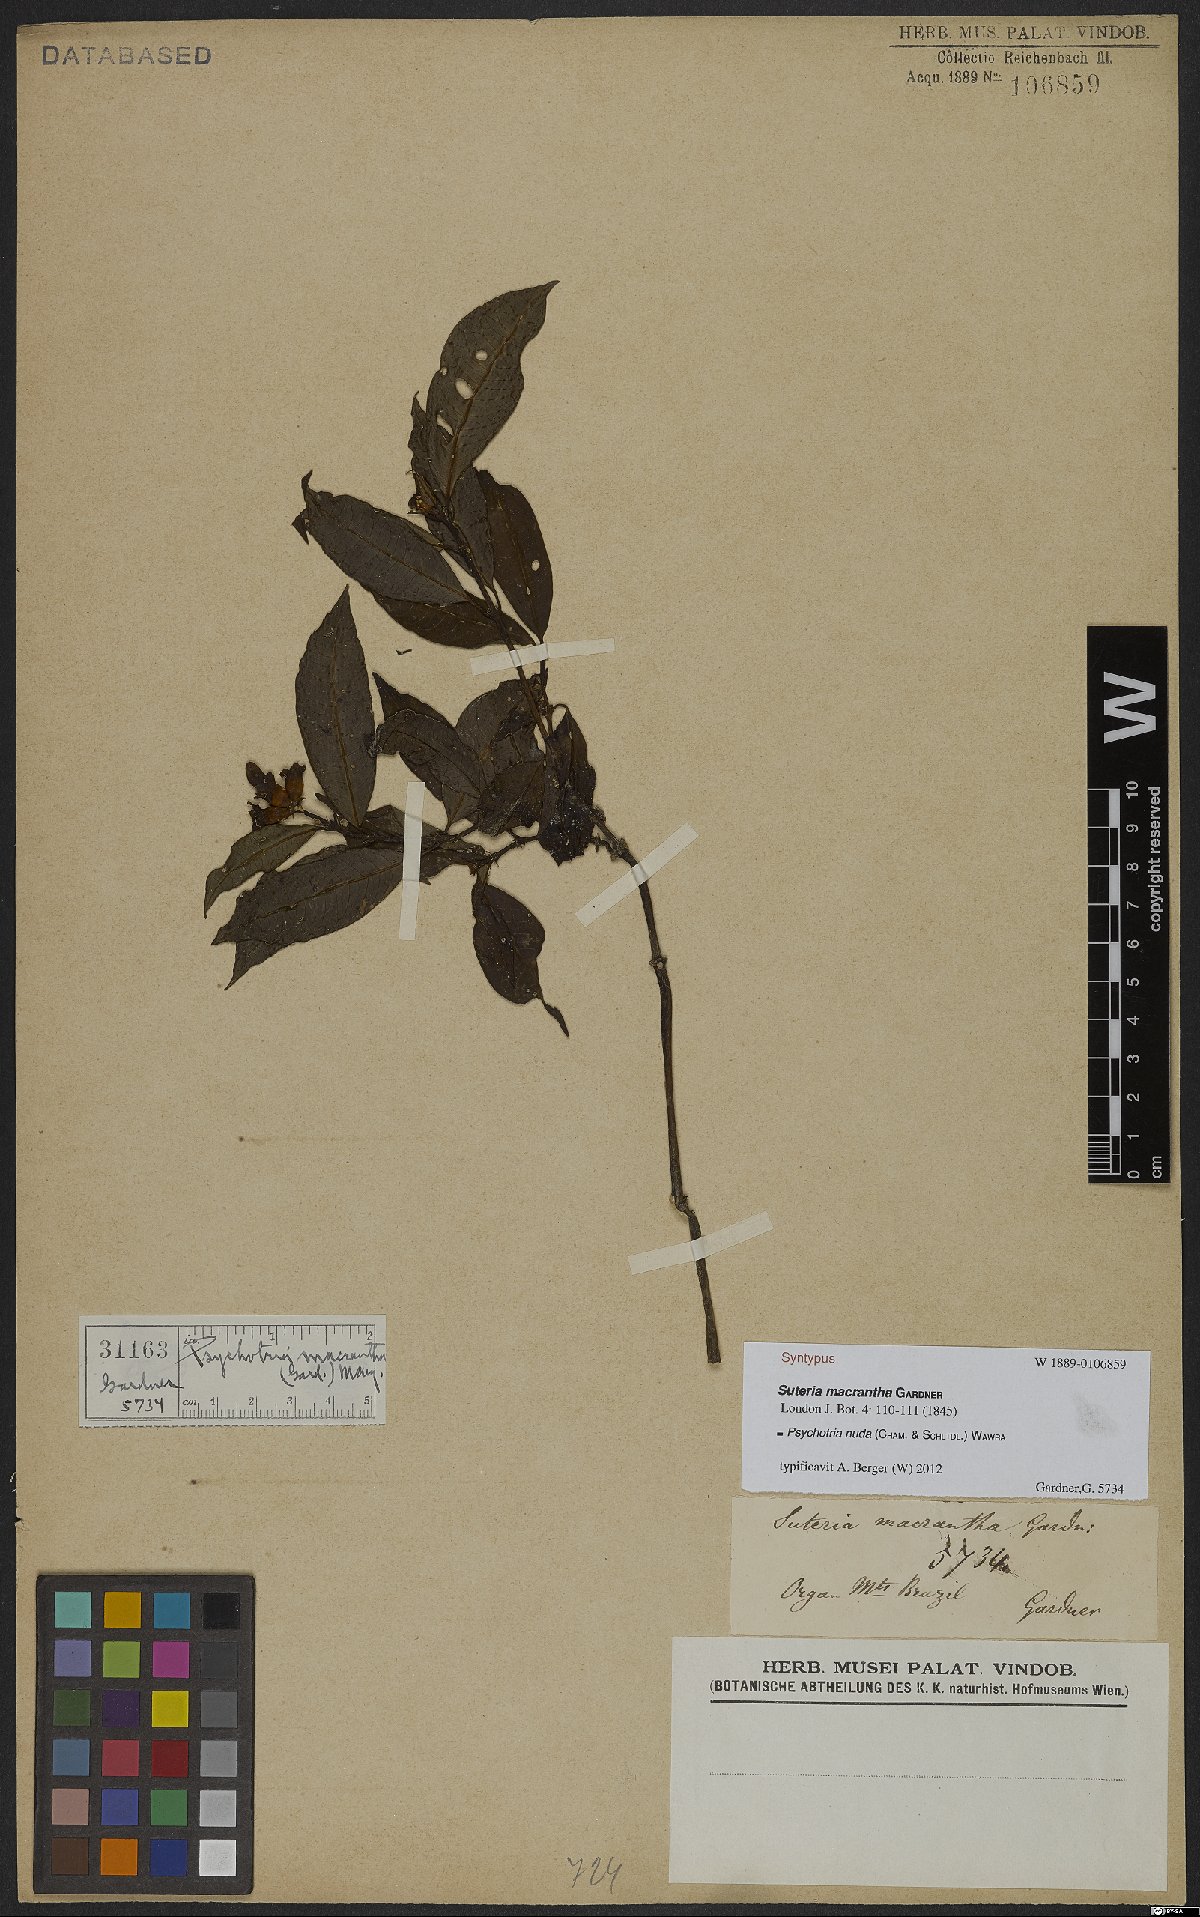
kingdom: Plantae
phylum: Tracheophyta
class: Magnoliopsida
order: Gentianales
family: Rubiaceae
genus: Psychotria
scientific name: Psychotria nuda
